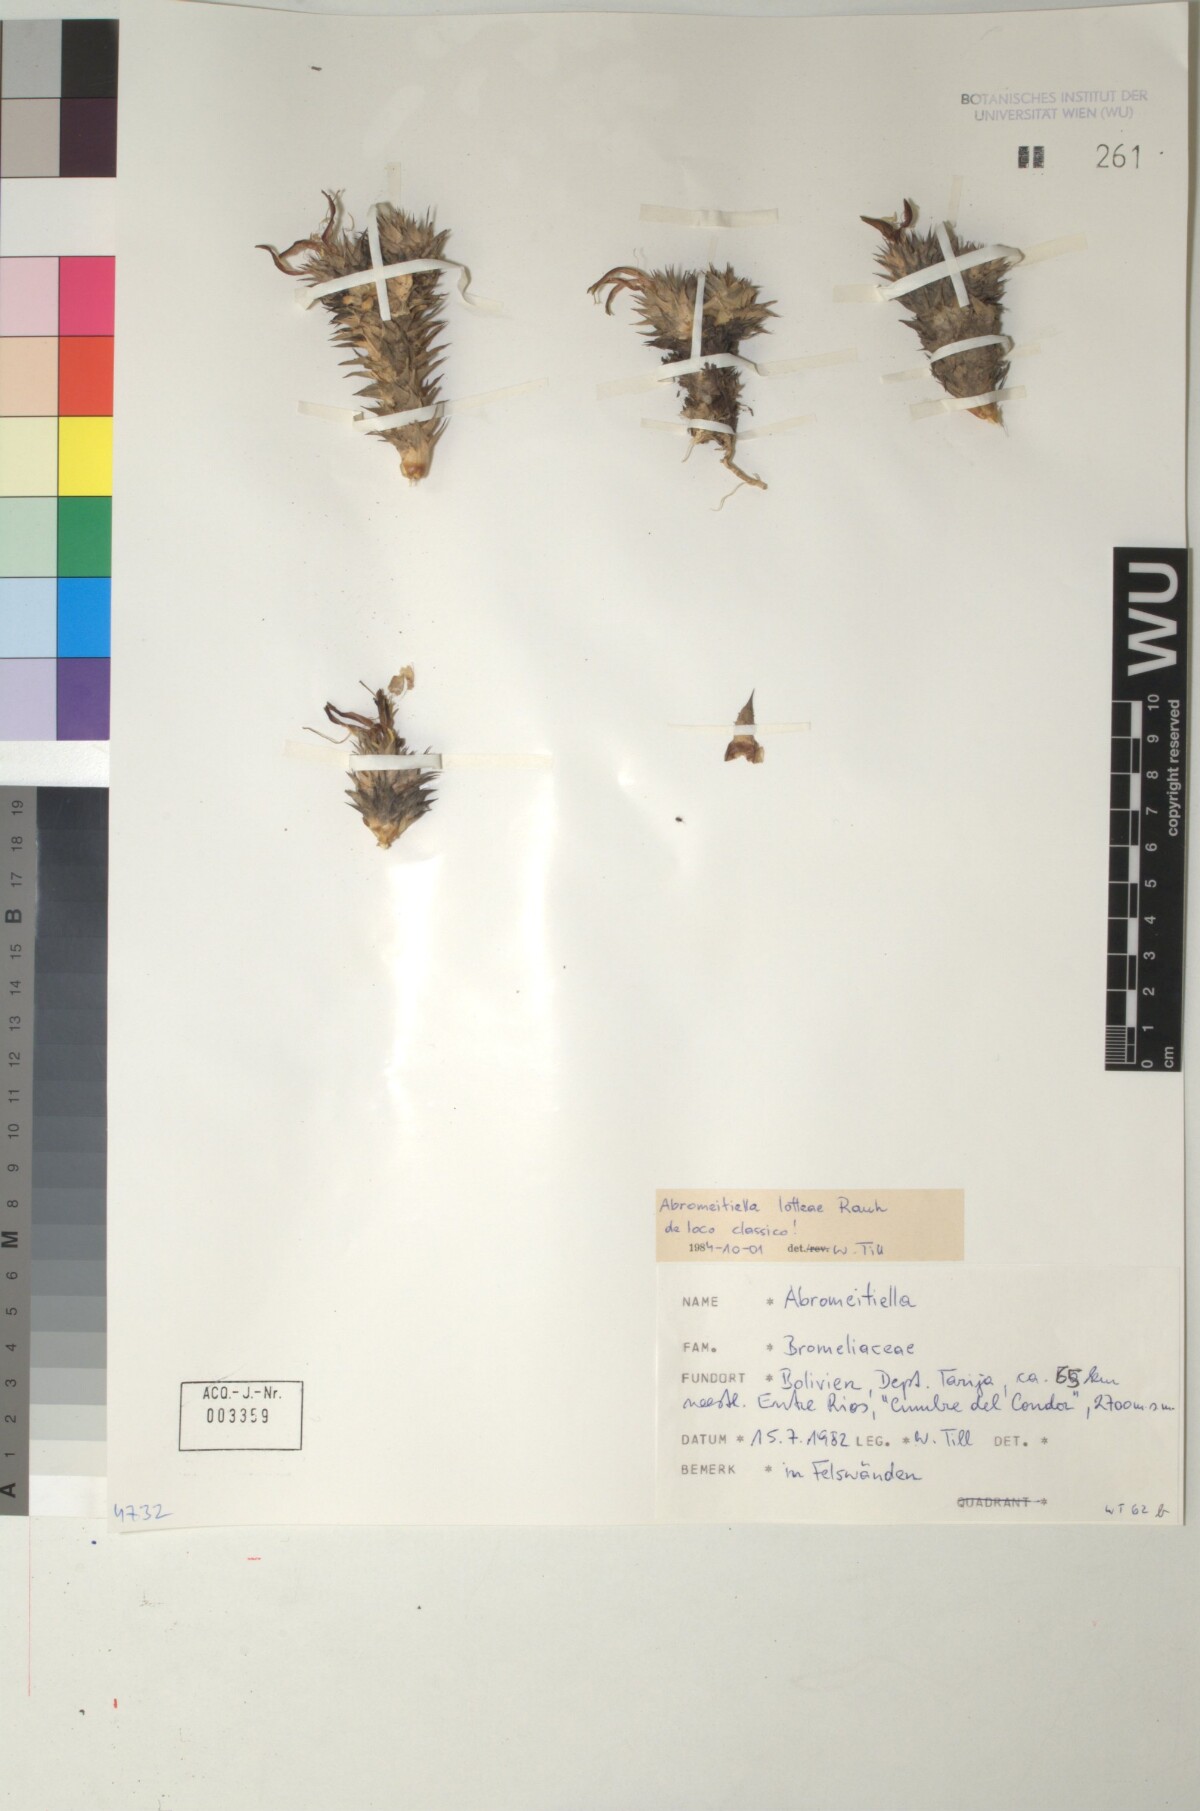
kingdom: Plantae
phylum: Tracheophyta
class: Liliopsida
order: Poales
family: Bromeliaceae
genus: Deuterocohnia
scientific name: Deuterocohnia lotteae
